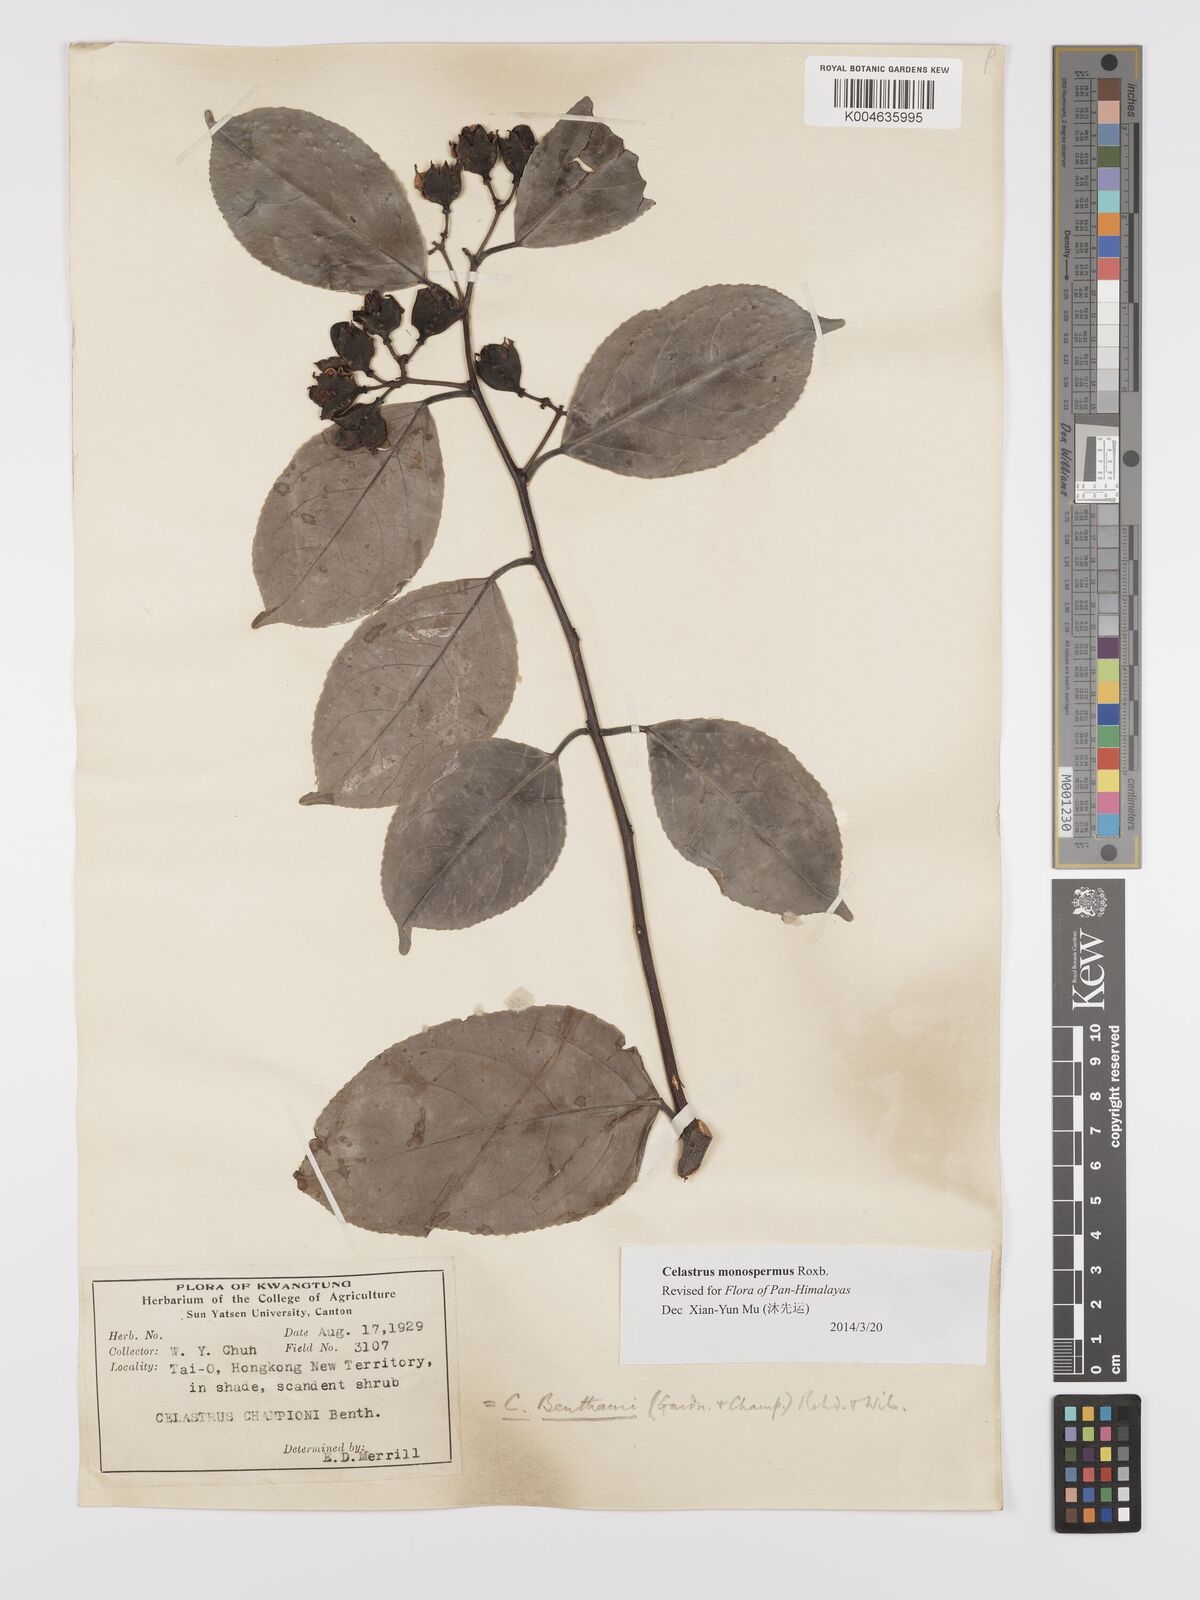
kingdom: Plantae
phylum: Tracheophyta
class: Magnoliopsida
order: Celastrales
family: Celastraceae
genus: Celastrus
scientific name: Celastrus monospermus
